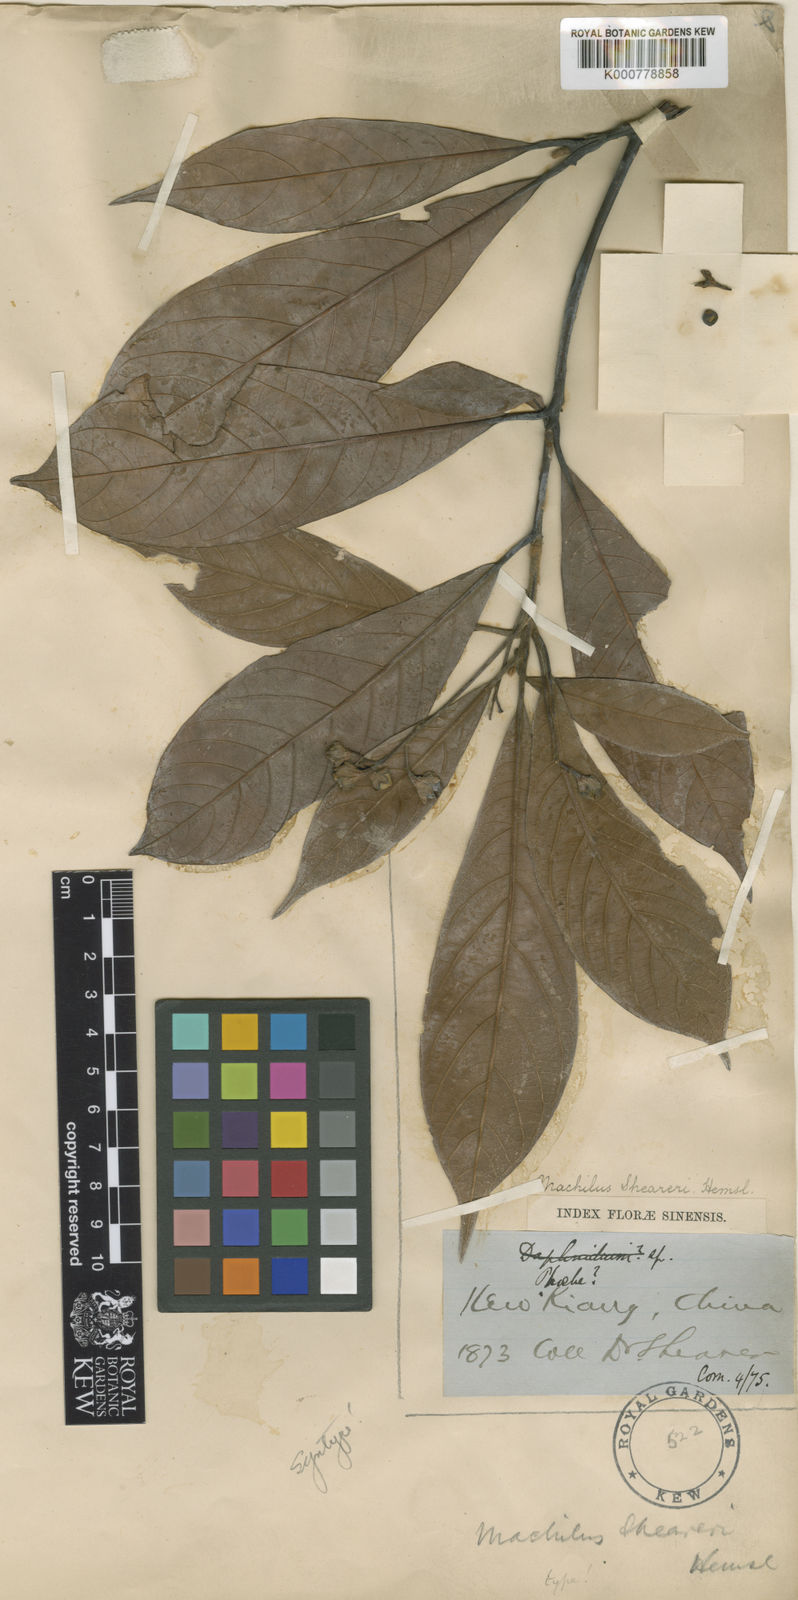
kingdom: Plantae
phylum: Tracheophyta
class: Magnoliopsida
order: Laurales
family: Lauraceae
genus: Phoebe
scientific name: Phoebe sheareri
